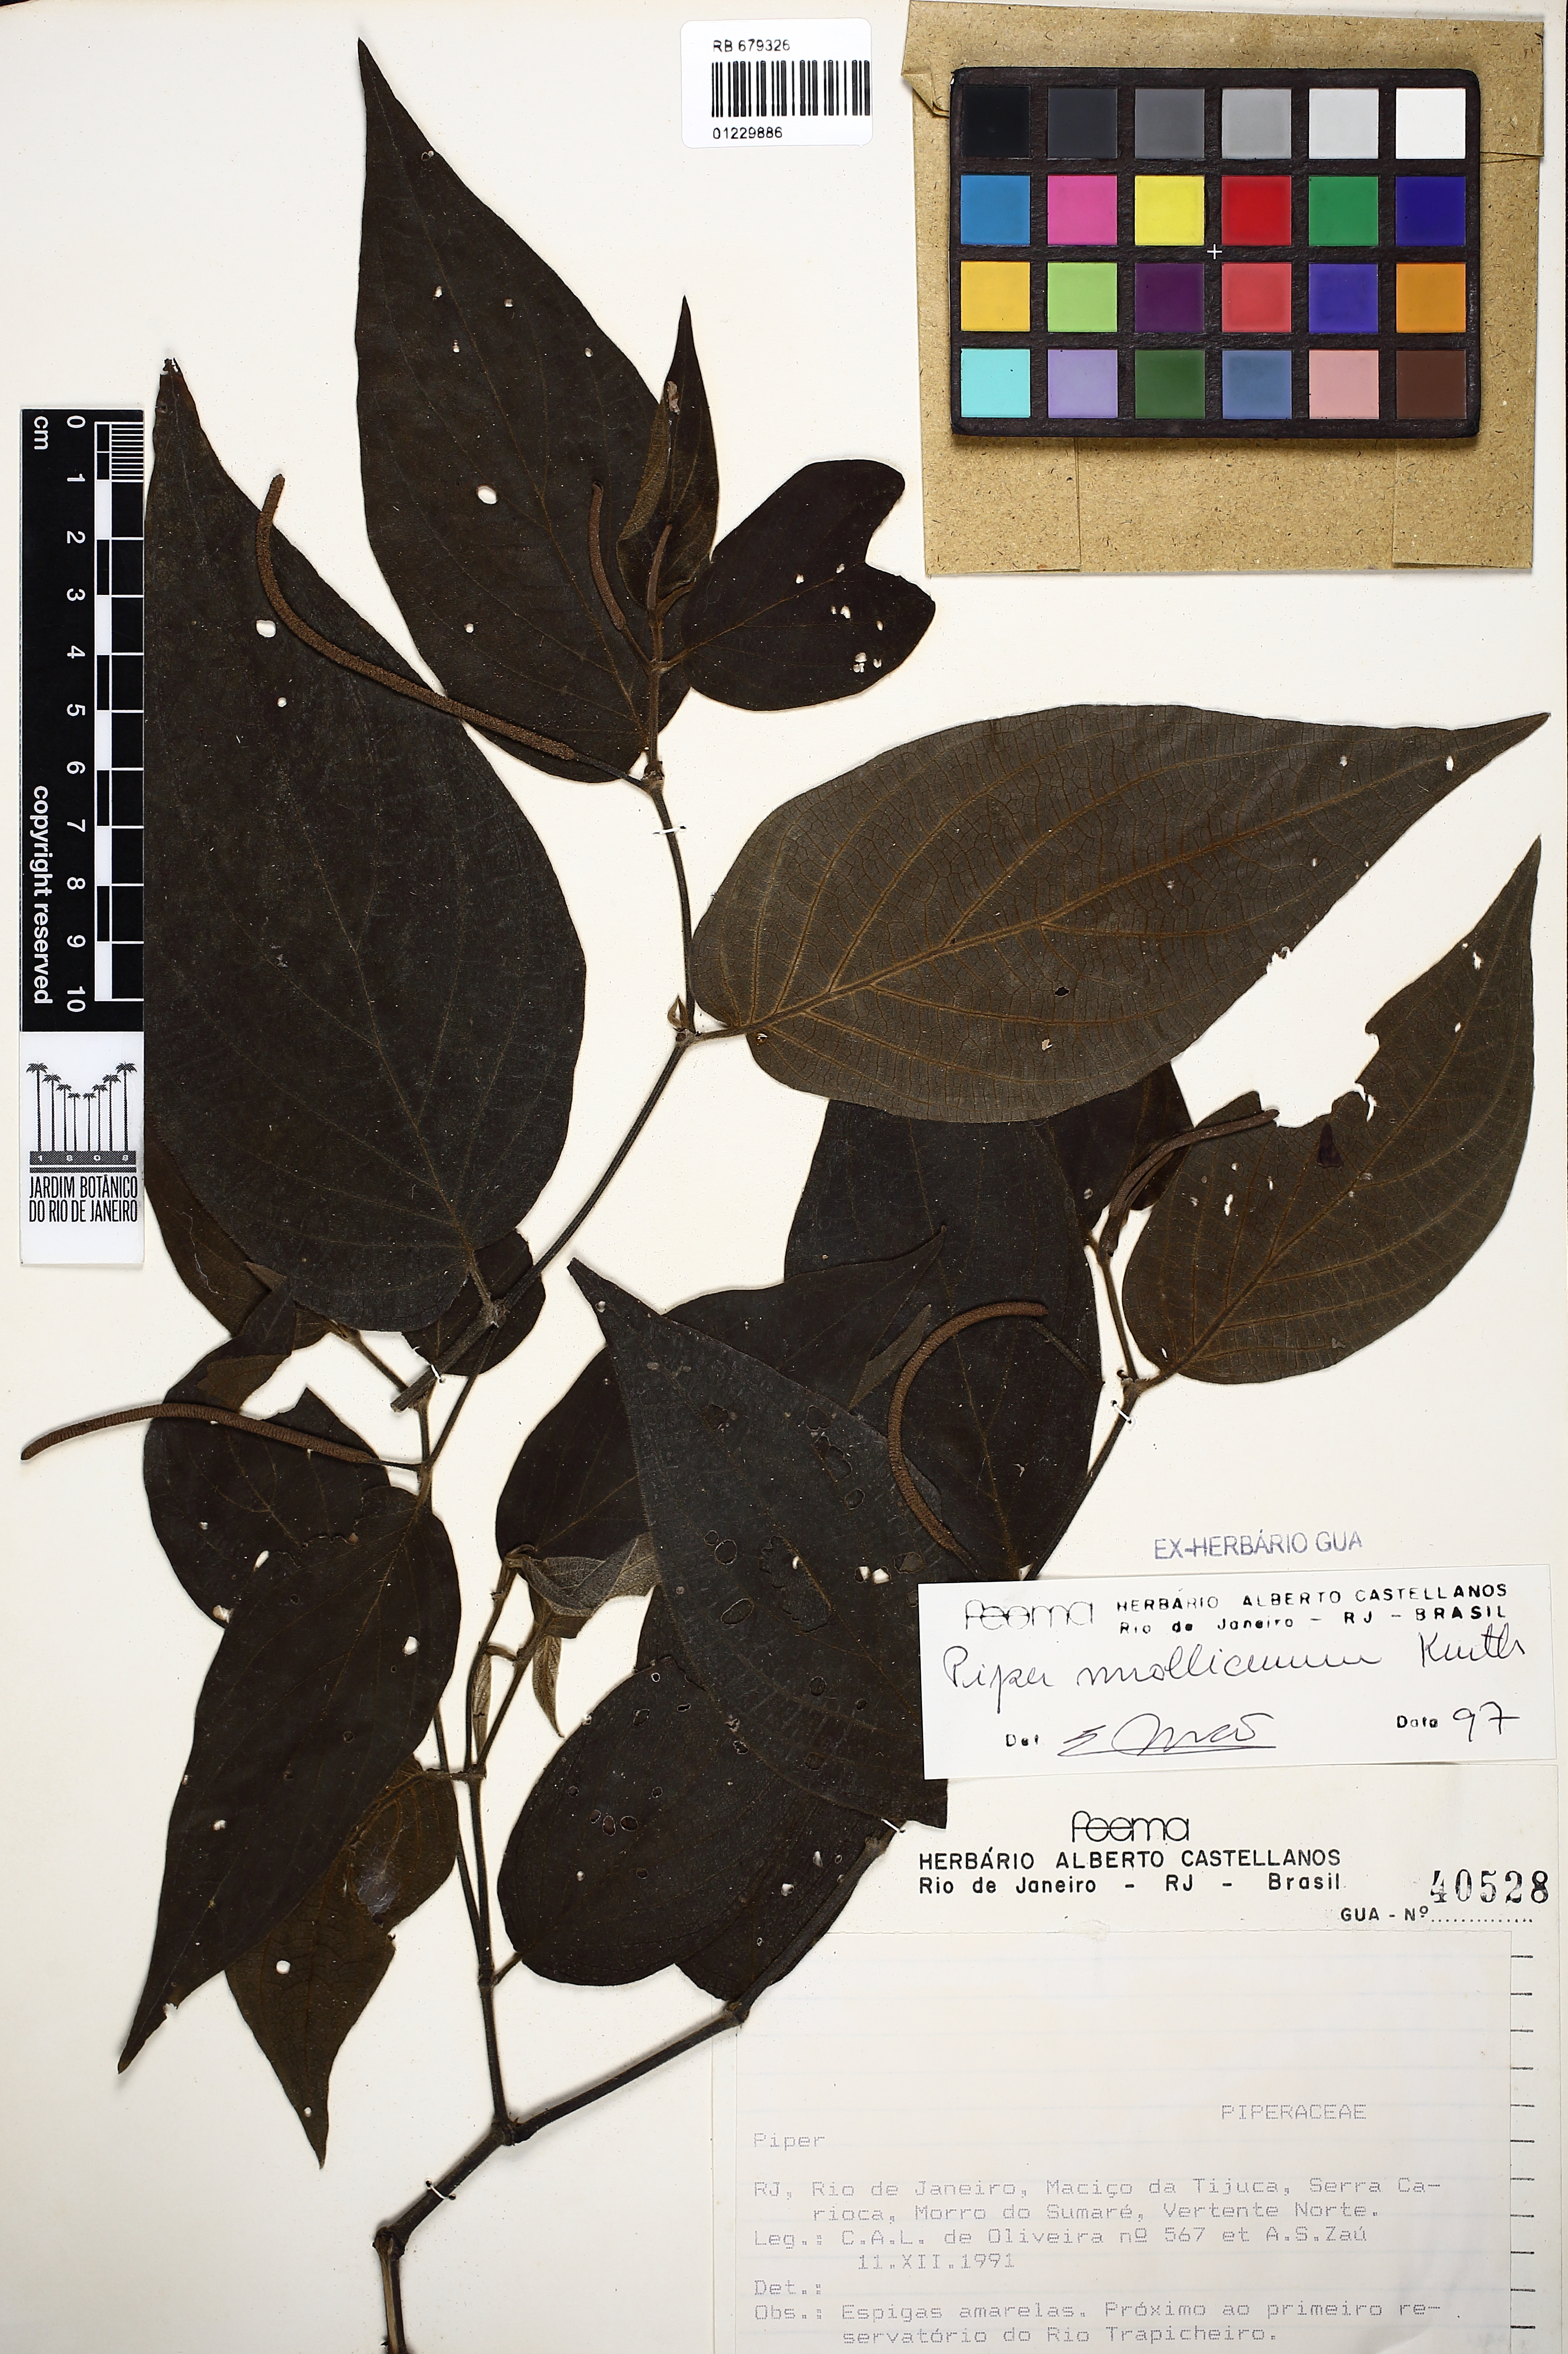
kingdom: Plantae
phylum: Tracheophyta
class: Magnoliopsida
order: Piperales
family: Piperaceae
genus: Piper
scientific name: Piper mollicomum
